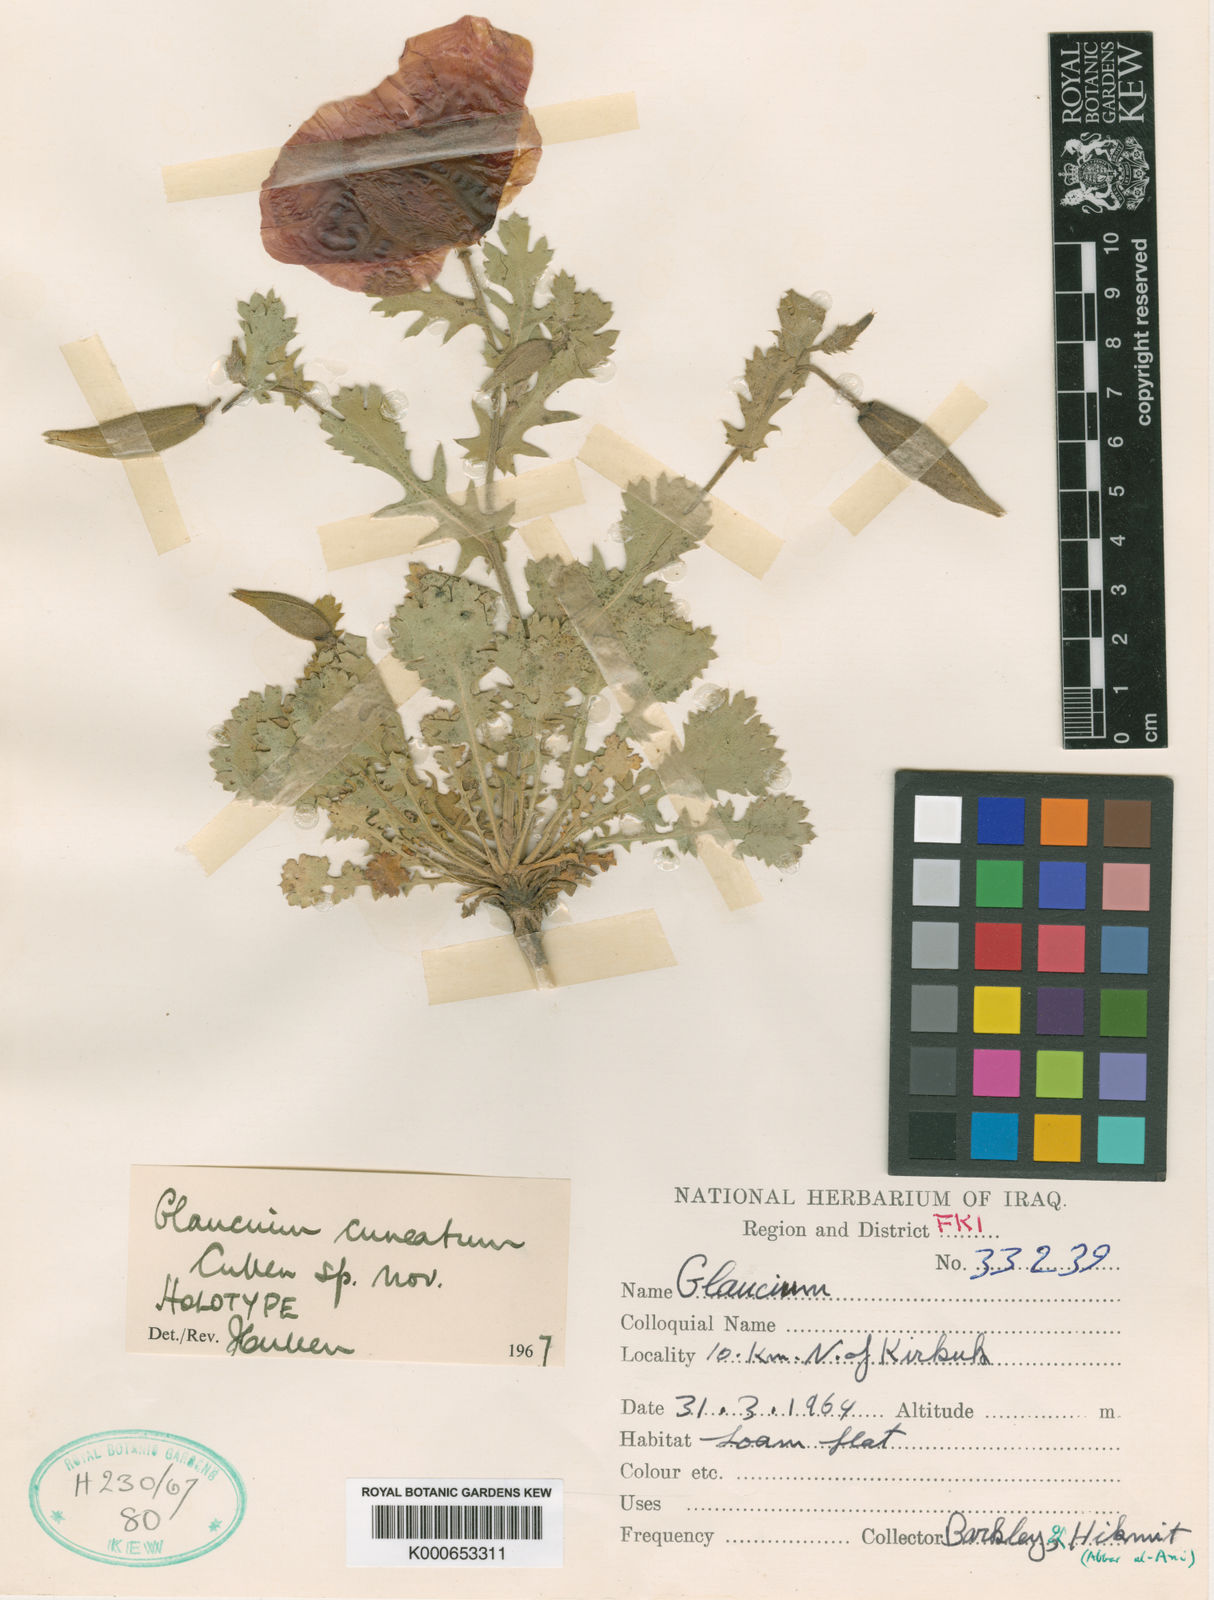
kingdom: Plantae
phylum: Tracheophyta
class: Magnoliopsida
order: Ranunculales
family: Papaveraceae
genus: Glaucium
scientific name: Glaucium cuneatum
